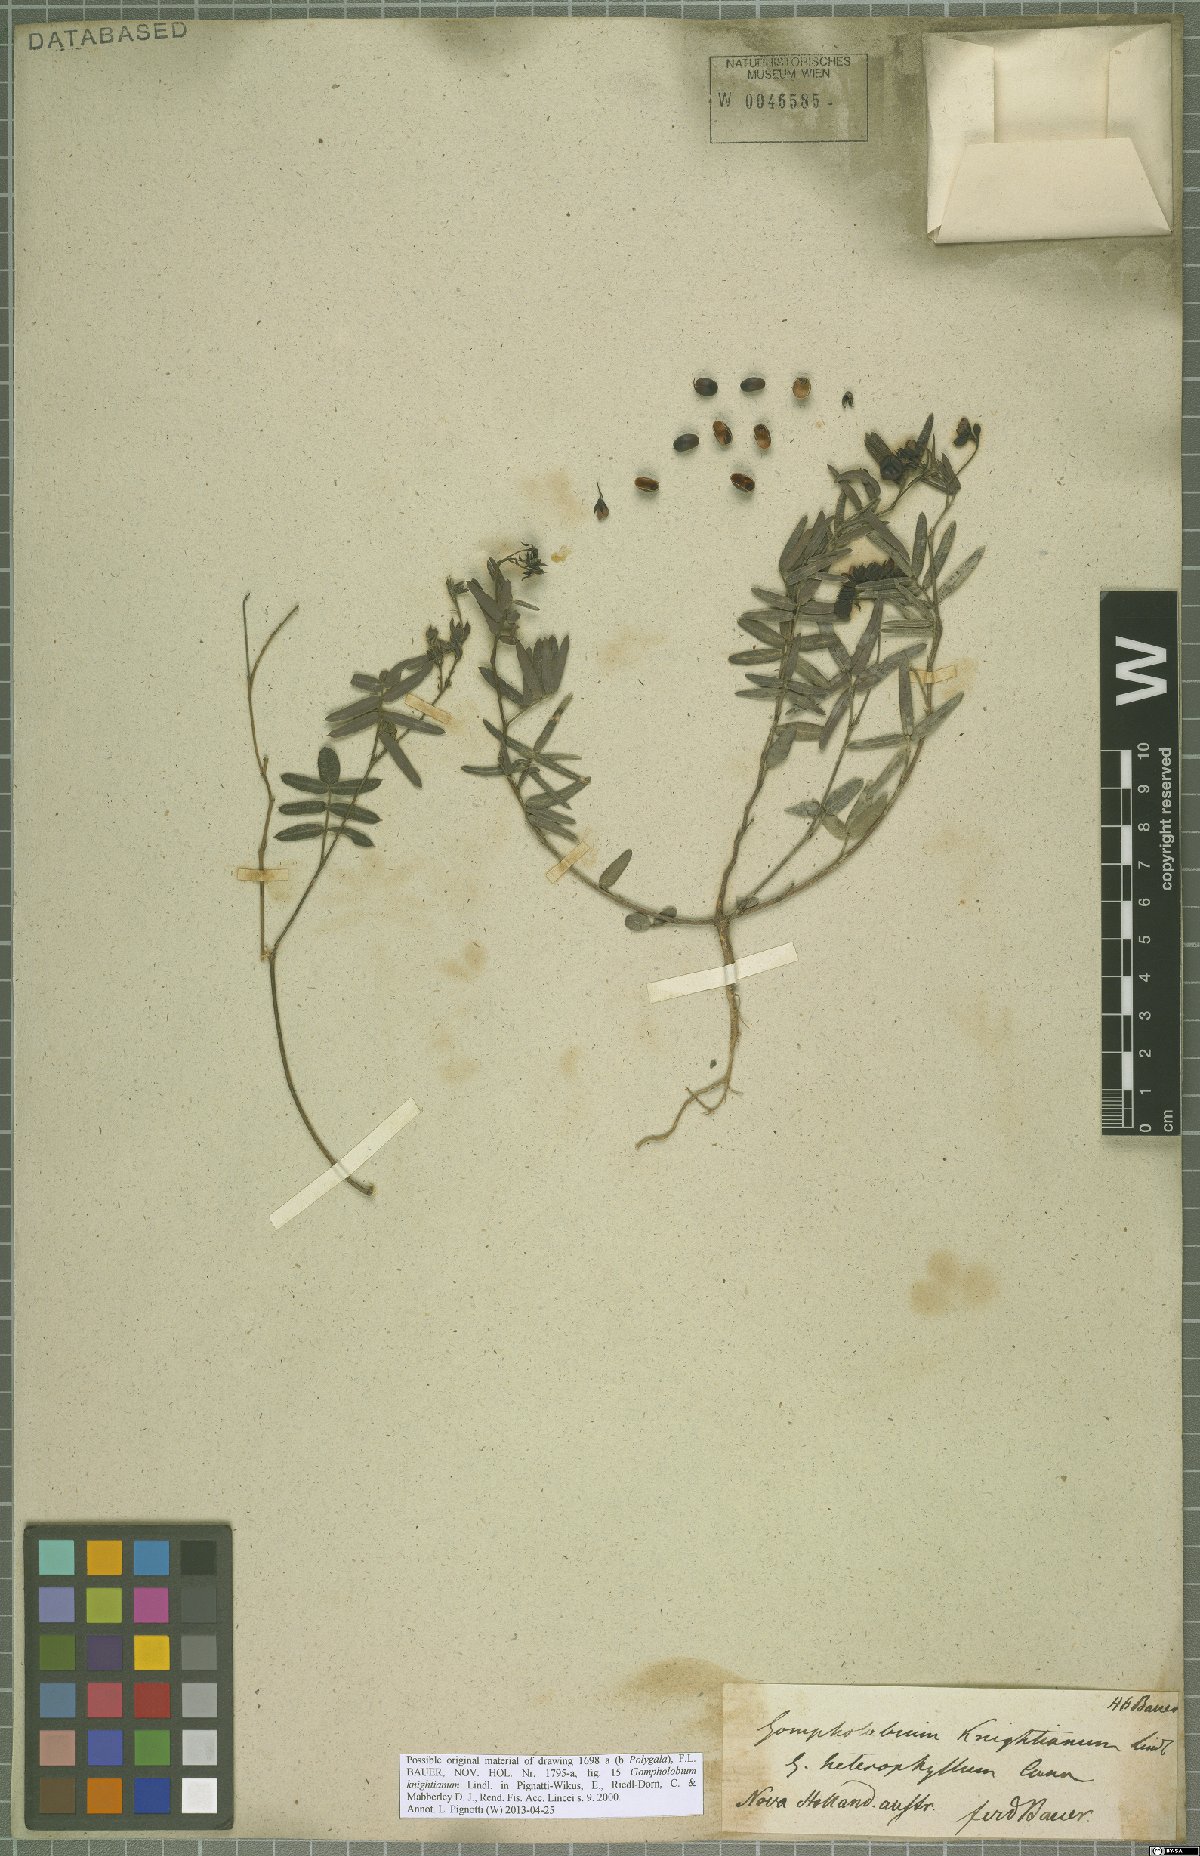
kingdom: Plantae
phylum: Tracheophyta
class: Magnoliopsida
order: Fabales
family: Fabaceae
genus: Gompholobium
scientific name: Gompholobium knightianum
